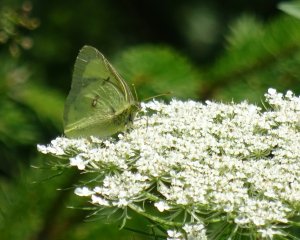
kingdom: Animalia
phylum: Arthropoda
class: Insecta
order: Lepidoptera
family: Pieridae
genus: Colias
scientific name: Colias philodice
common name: Clouded Sulphur
